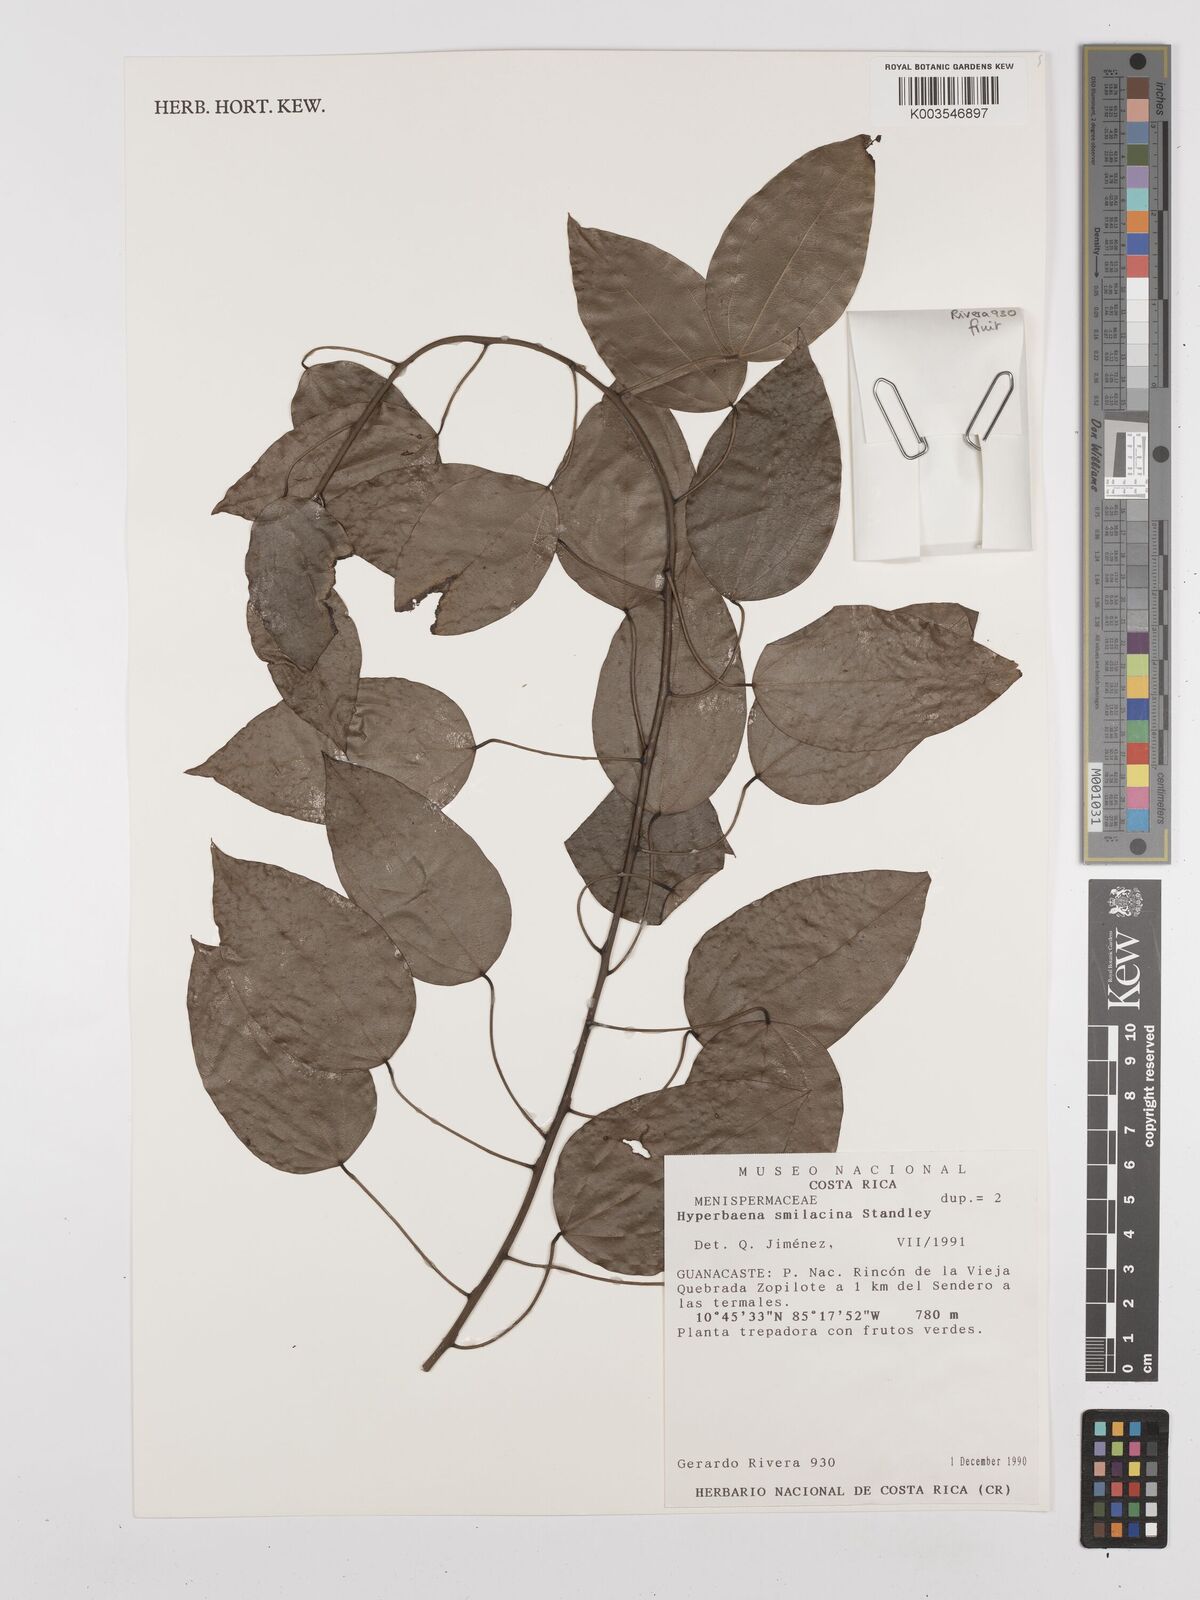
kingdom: Plantae
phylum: Tracheophyta
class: Magnoliopsida
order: Ranunculales
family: Menispermaceae
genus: Hyperbaena
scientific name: Hyperbaena smilacina
